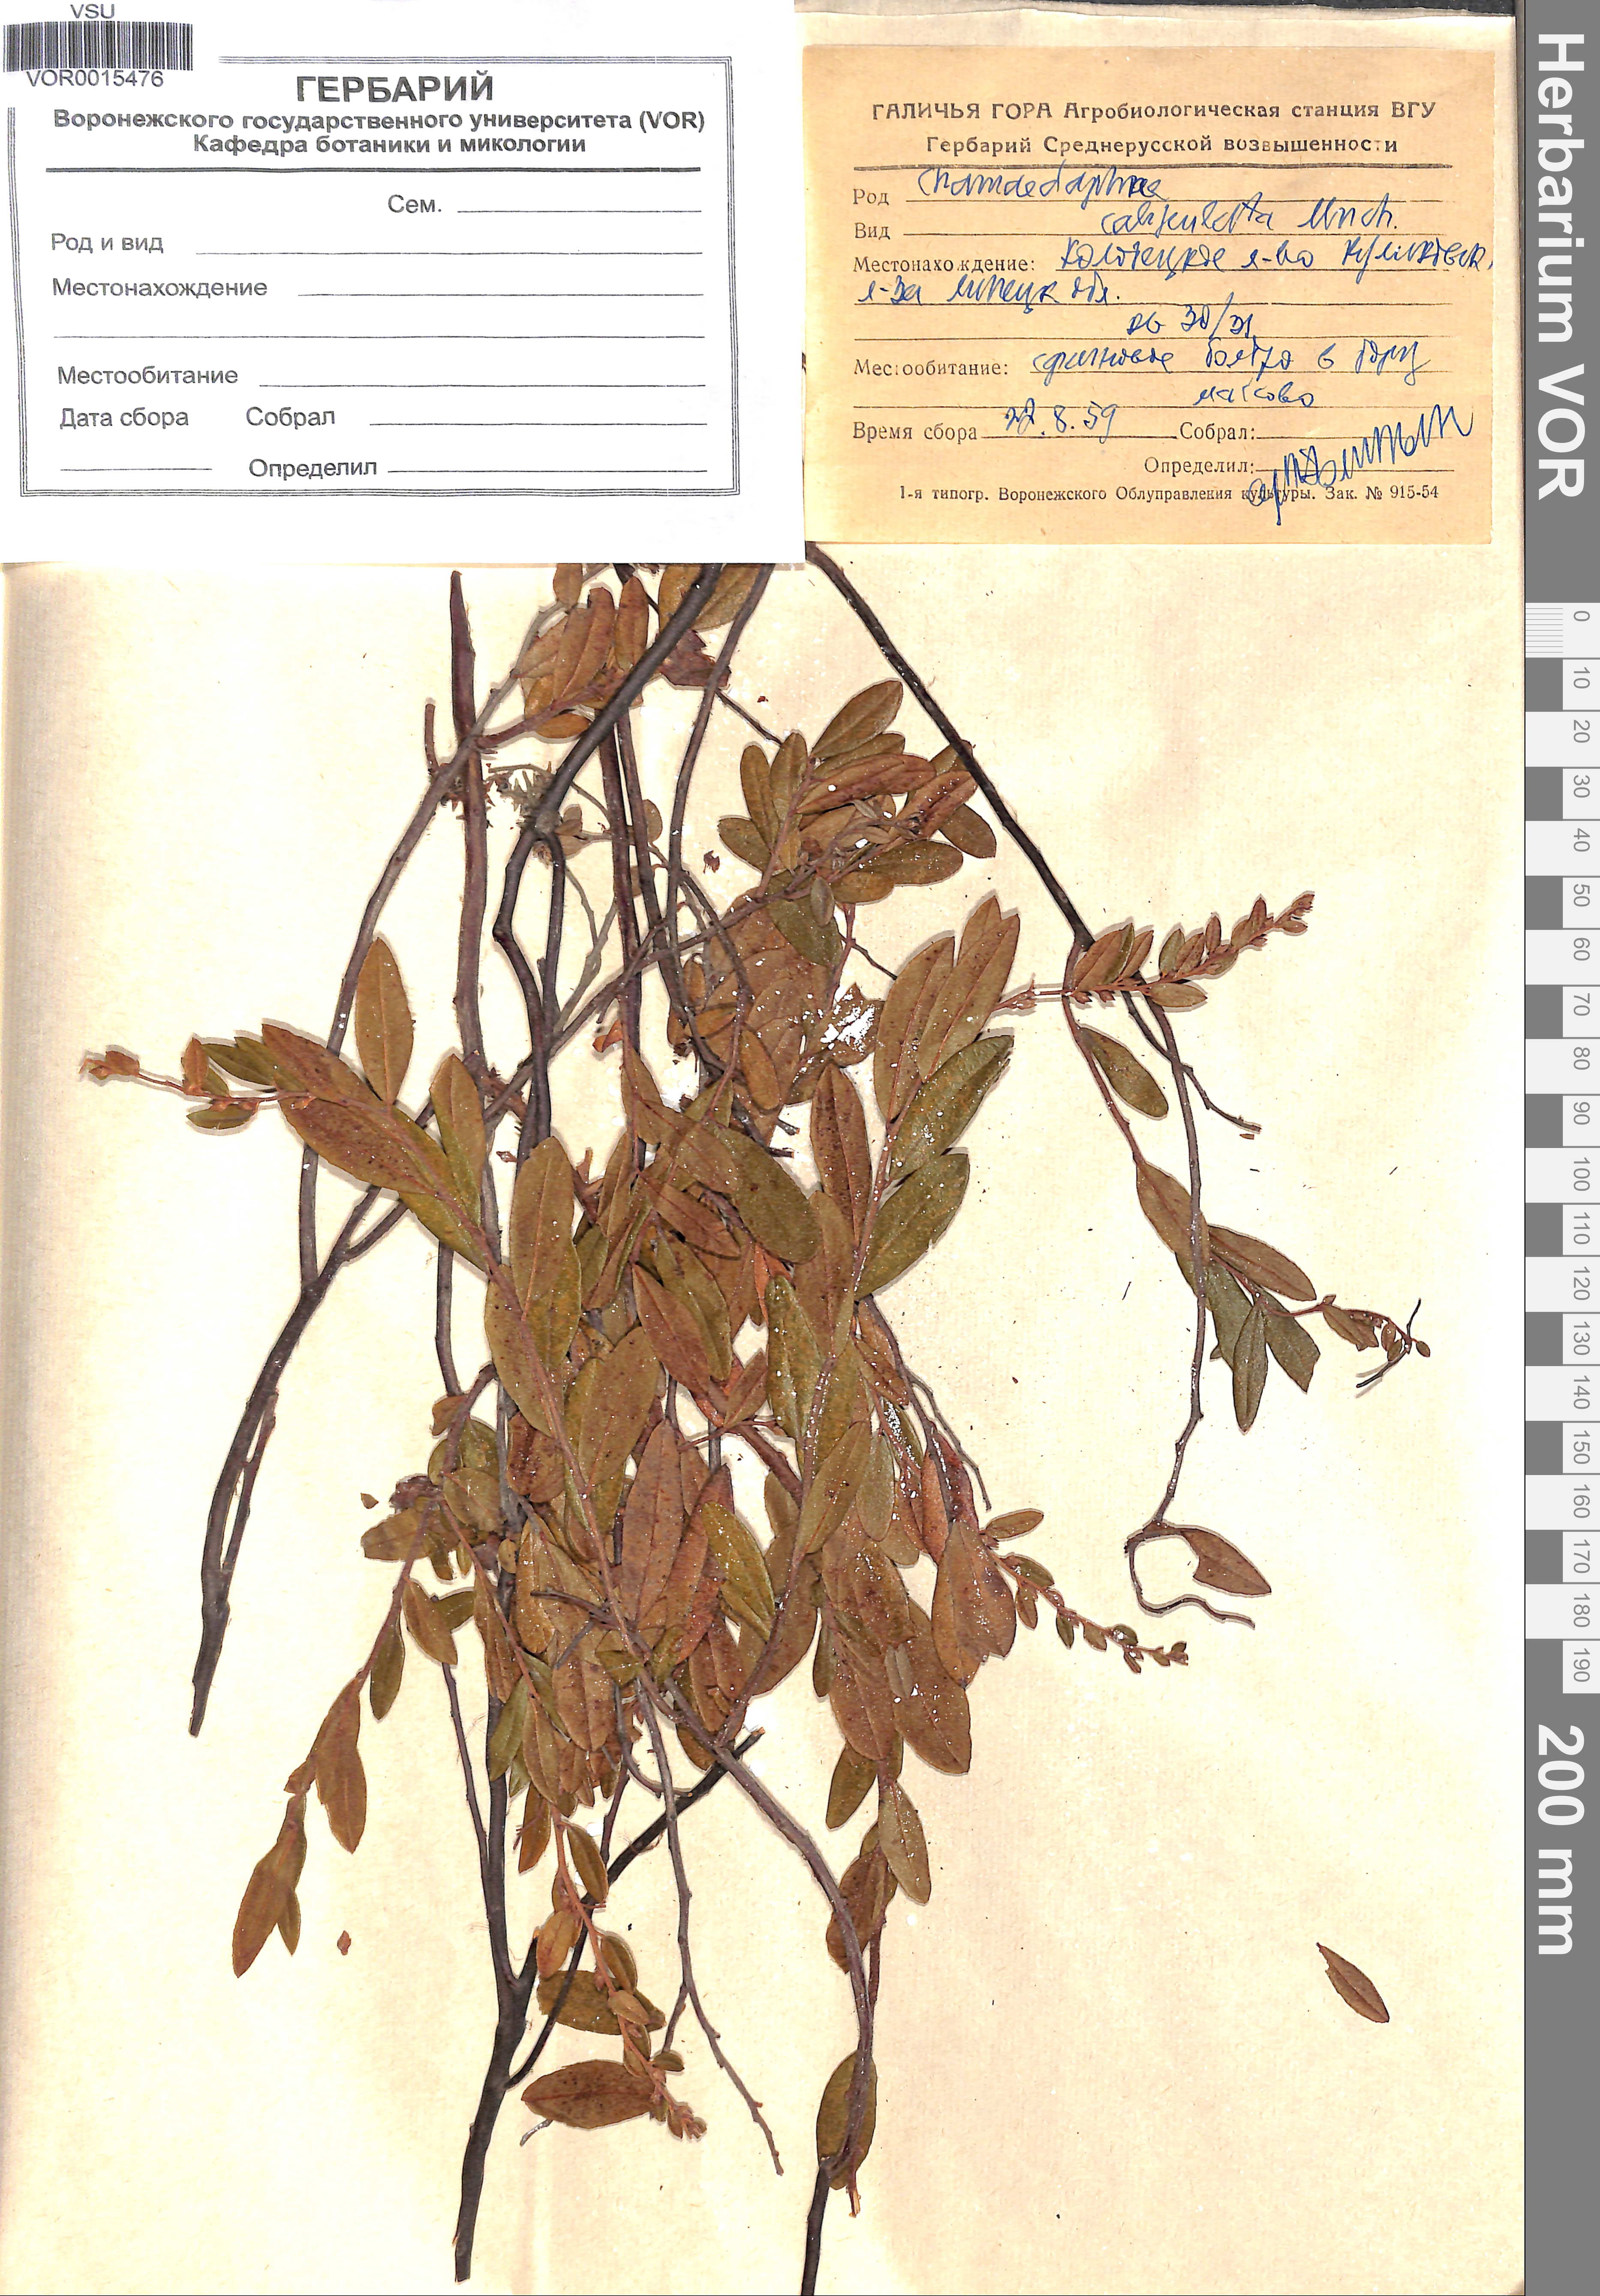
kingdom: Plantae
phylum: Tracheophyta
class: Magnoliopsida
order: Ericales
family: Ericaceae
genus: Chamaedaphne
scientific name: Chamaedaphne calyculata
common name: Leatherleaf
